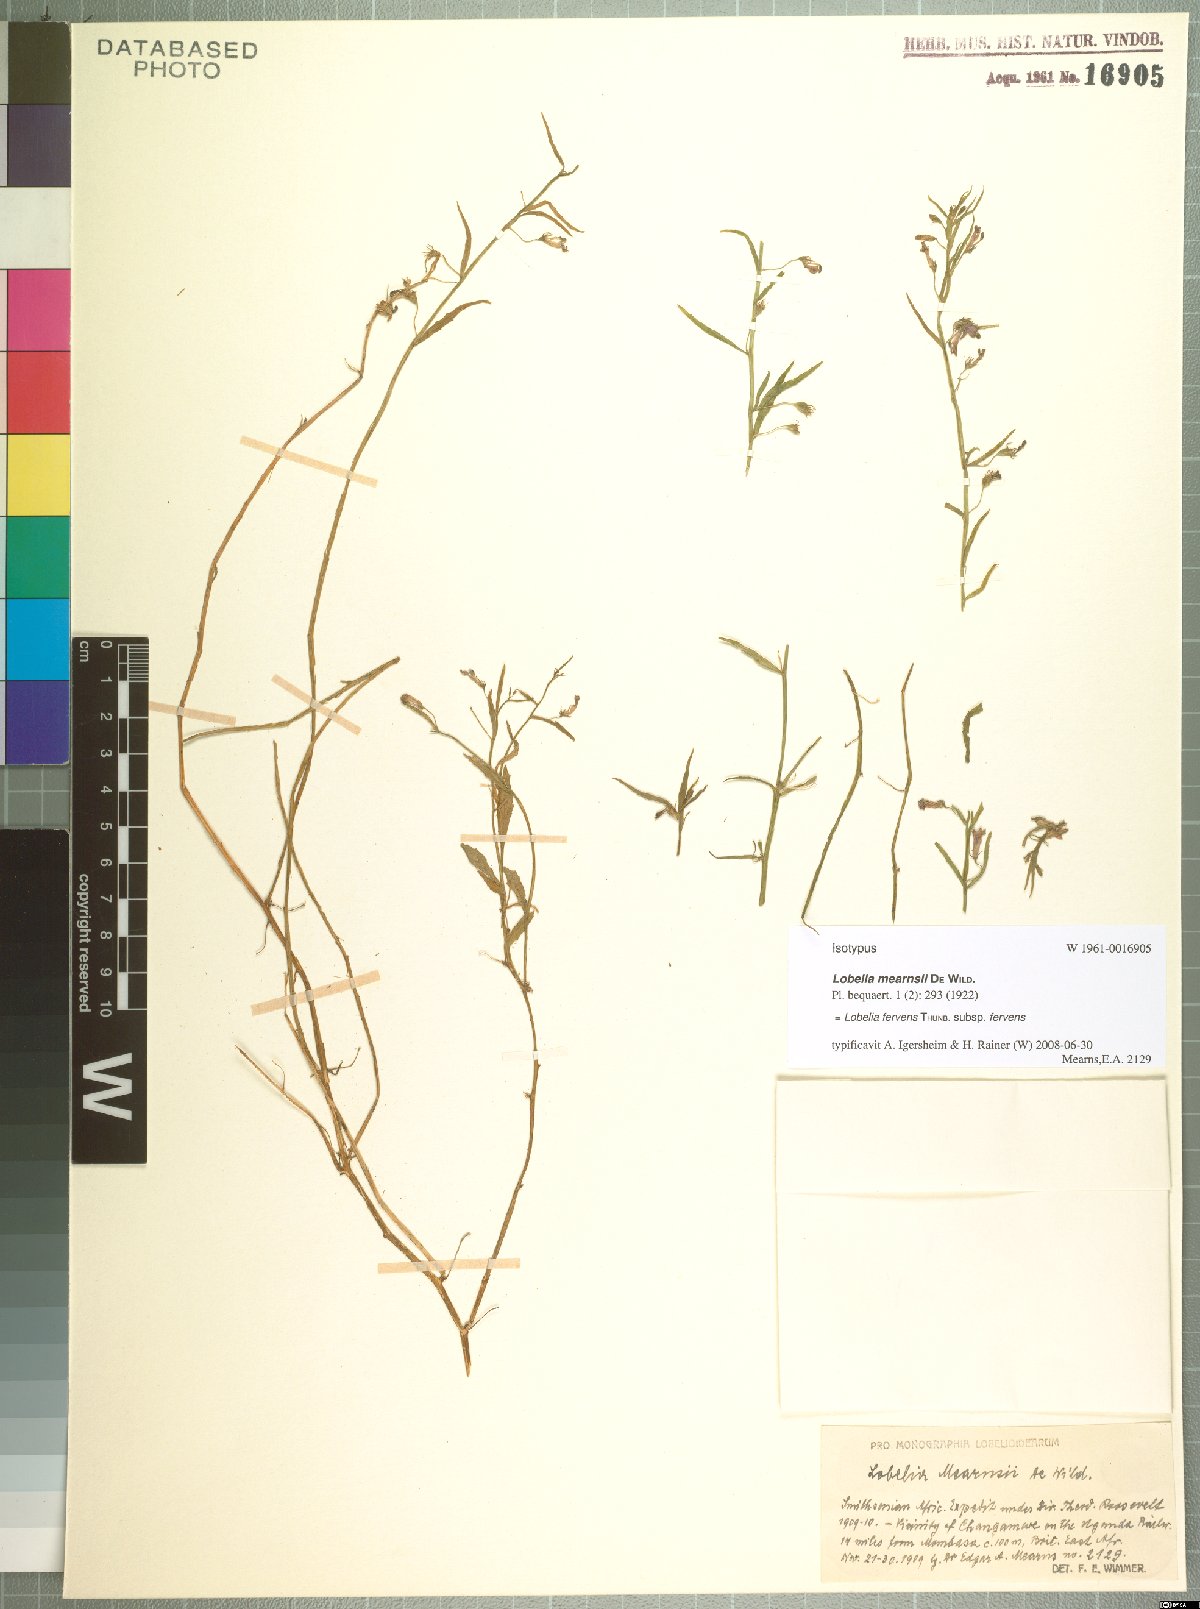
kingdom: Plantae
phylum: Tracheophyta
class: Magnoliopsida
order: Asterales
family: Campanulaceae
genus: Lobelia
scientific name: Lobelia fervens
